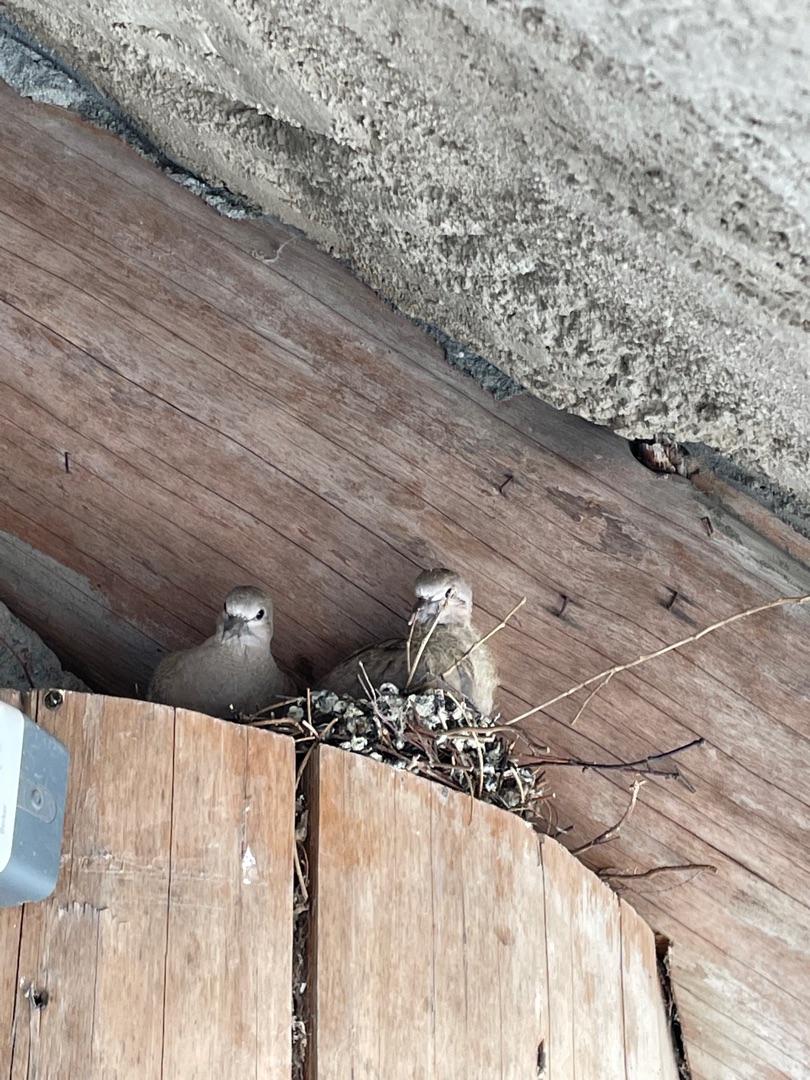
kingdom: Animalia
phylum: Chordata
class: Aves
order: Columbiformes
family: Columbidae
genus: Streptopelia
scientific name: Streptopelia decaocto
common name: Tyrkerdue
